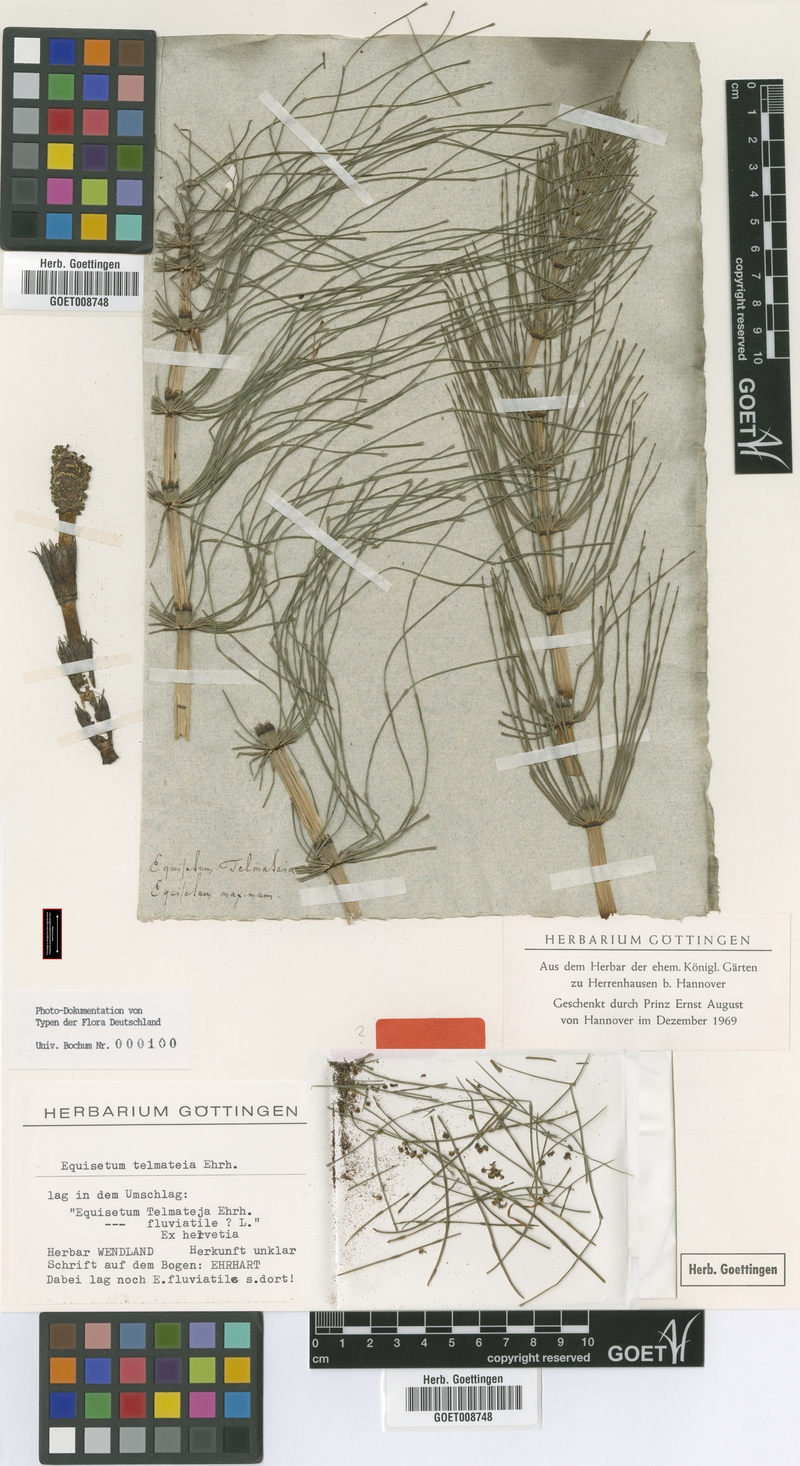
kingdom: Plantae
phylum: Tracheophyta
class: Polypodiopsida
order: Equisetales
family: Equisetaceae
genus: Equisetum
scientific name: Equisetum telmateia
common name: Great horsetail
